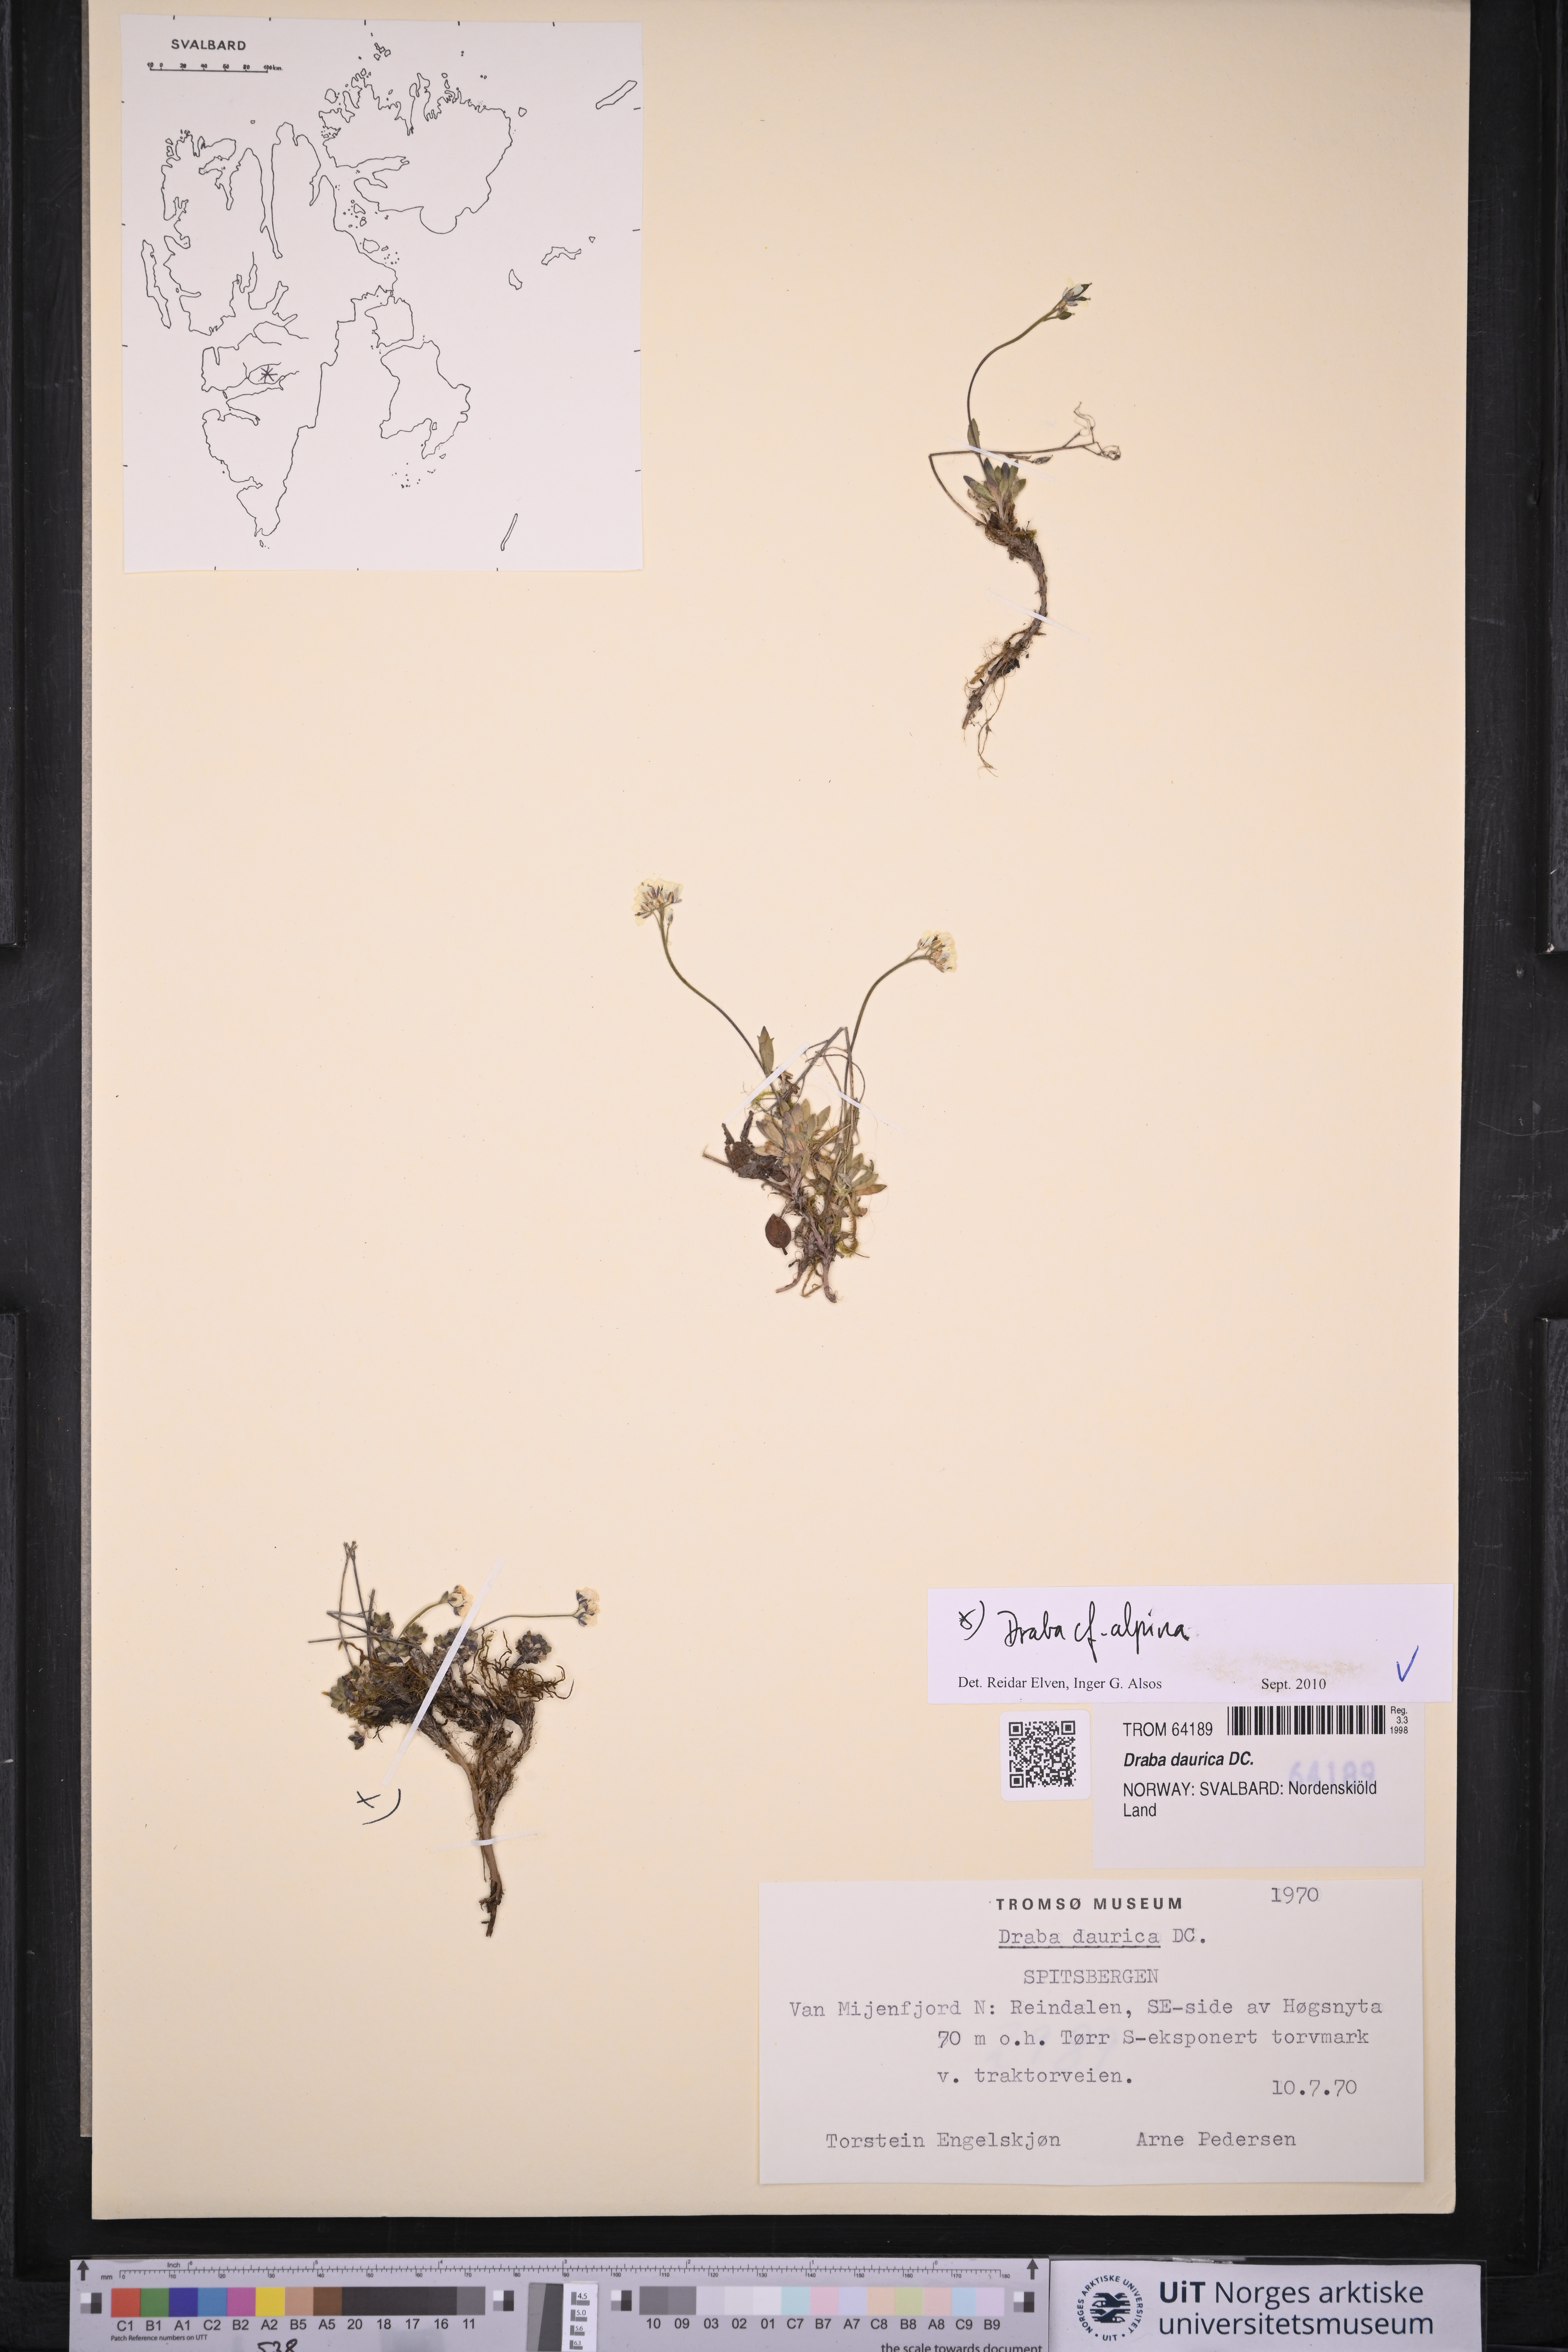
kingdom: Plantae
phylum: Tracheophyta
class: Magnoliopsida
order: Brassicales
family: Brassicaceae
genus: Draba
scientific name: Draba alpina
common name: Alpine draba
